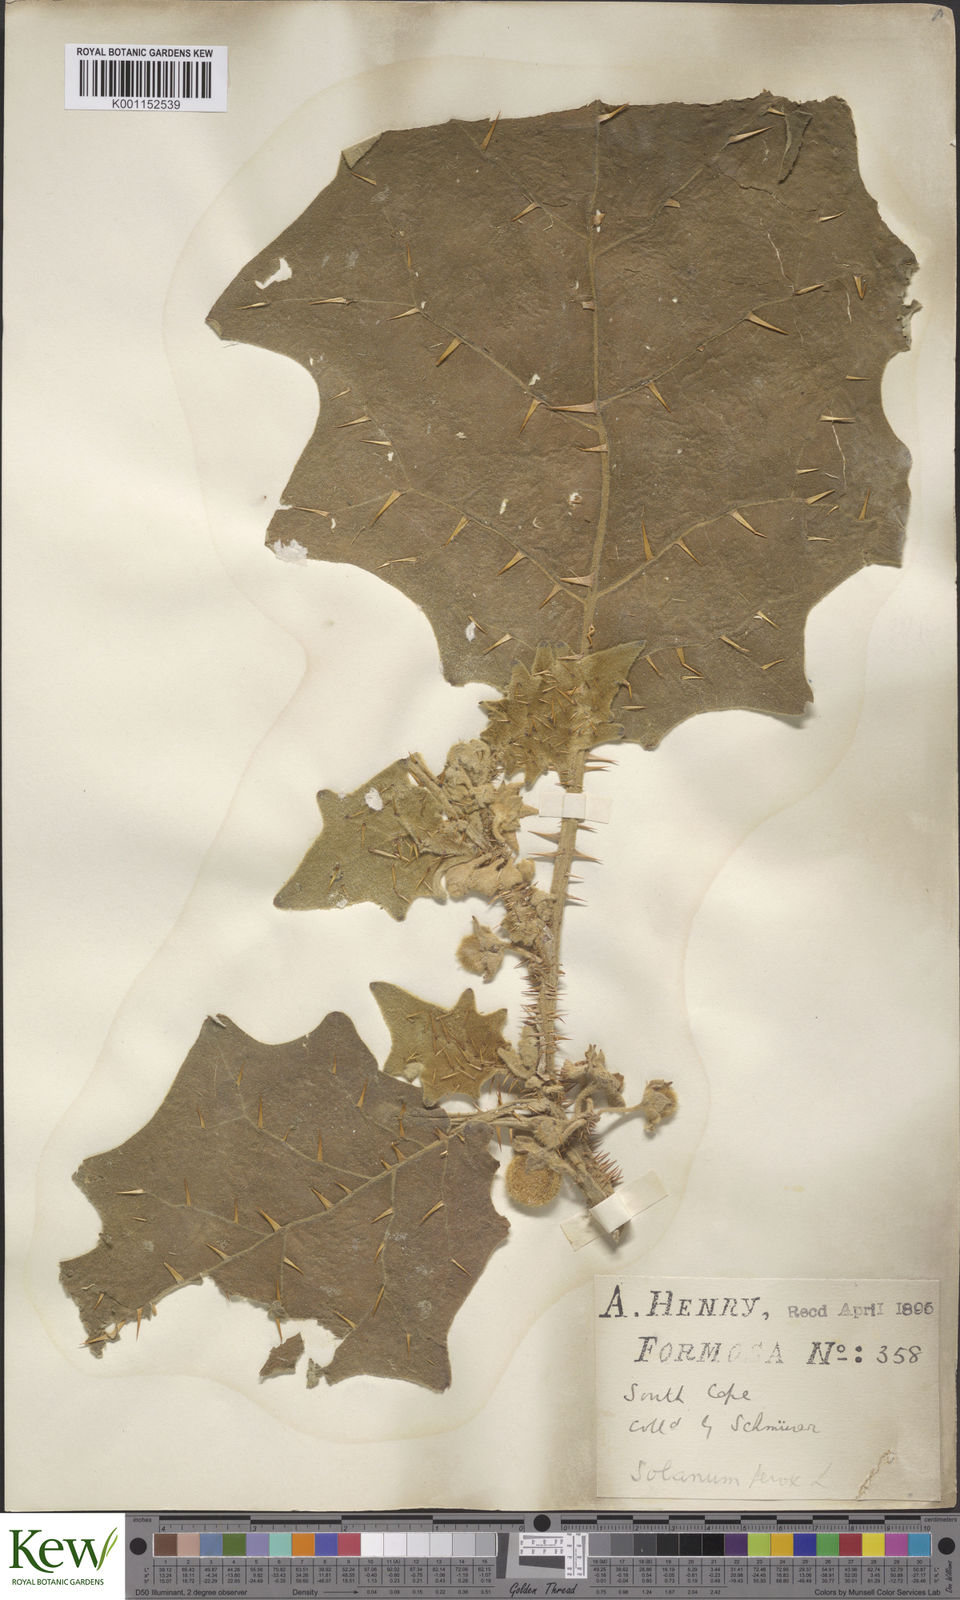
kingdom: Plantae
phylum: Tracheophyta
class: Magnoliopsida
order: Solanales
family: Solanaceae
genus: Solanum
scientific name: Solanum lasiocarpum
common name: Indian nightshade
